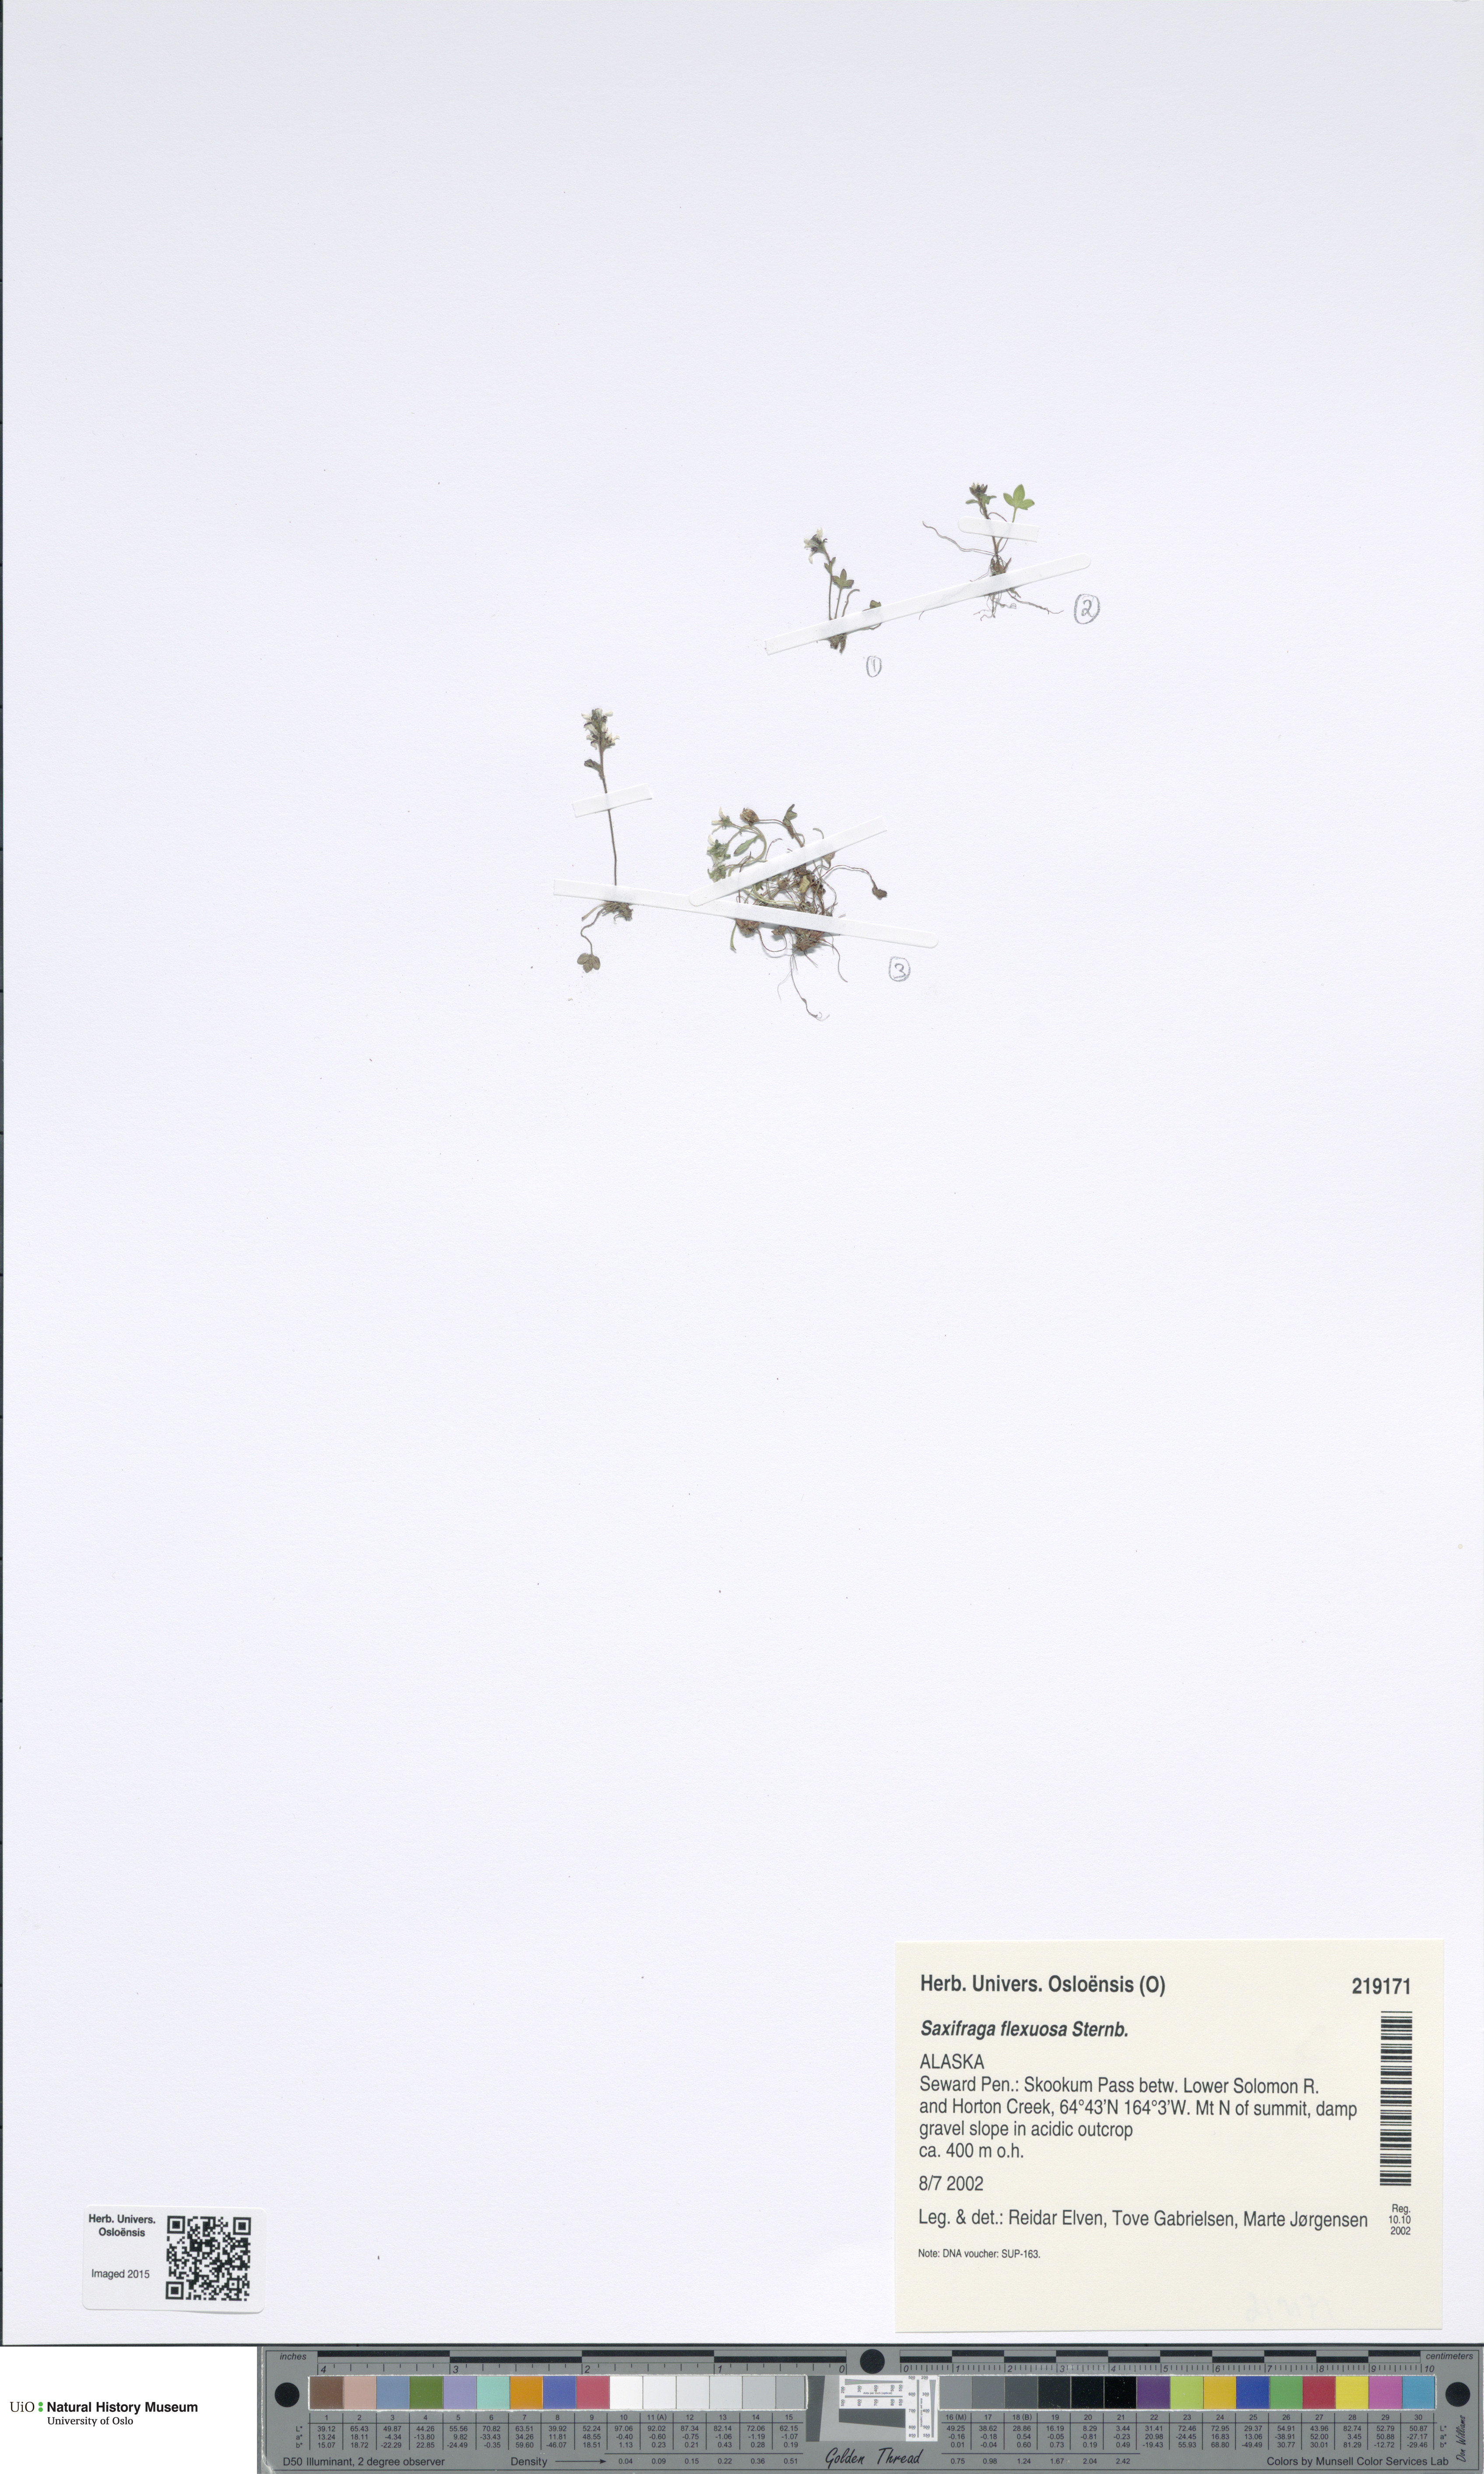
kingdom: Plantae
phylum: Tracheophyta
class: Magnoliopsida
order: Saxifragales
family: Saxifragaceae
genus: Saxifraga
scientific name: Saxifraga hyperborea
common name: Arctic saxifrage
